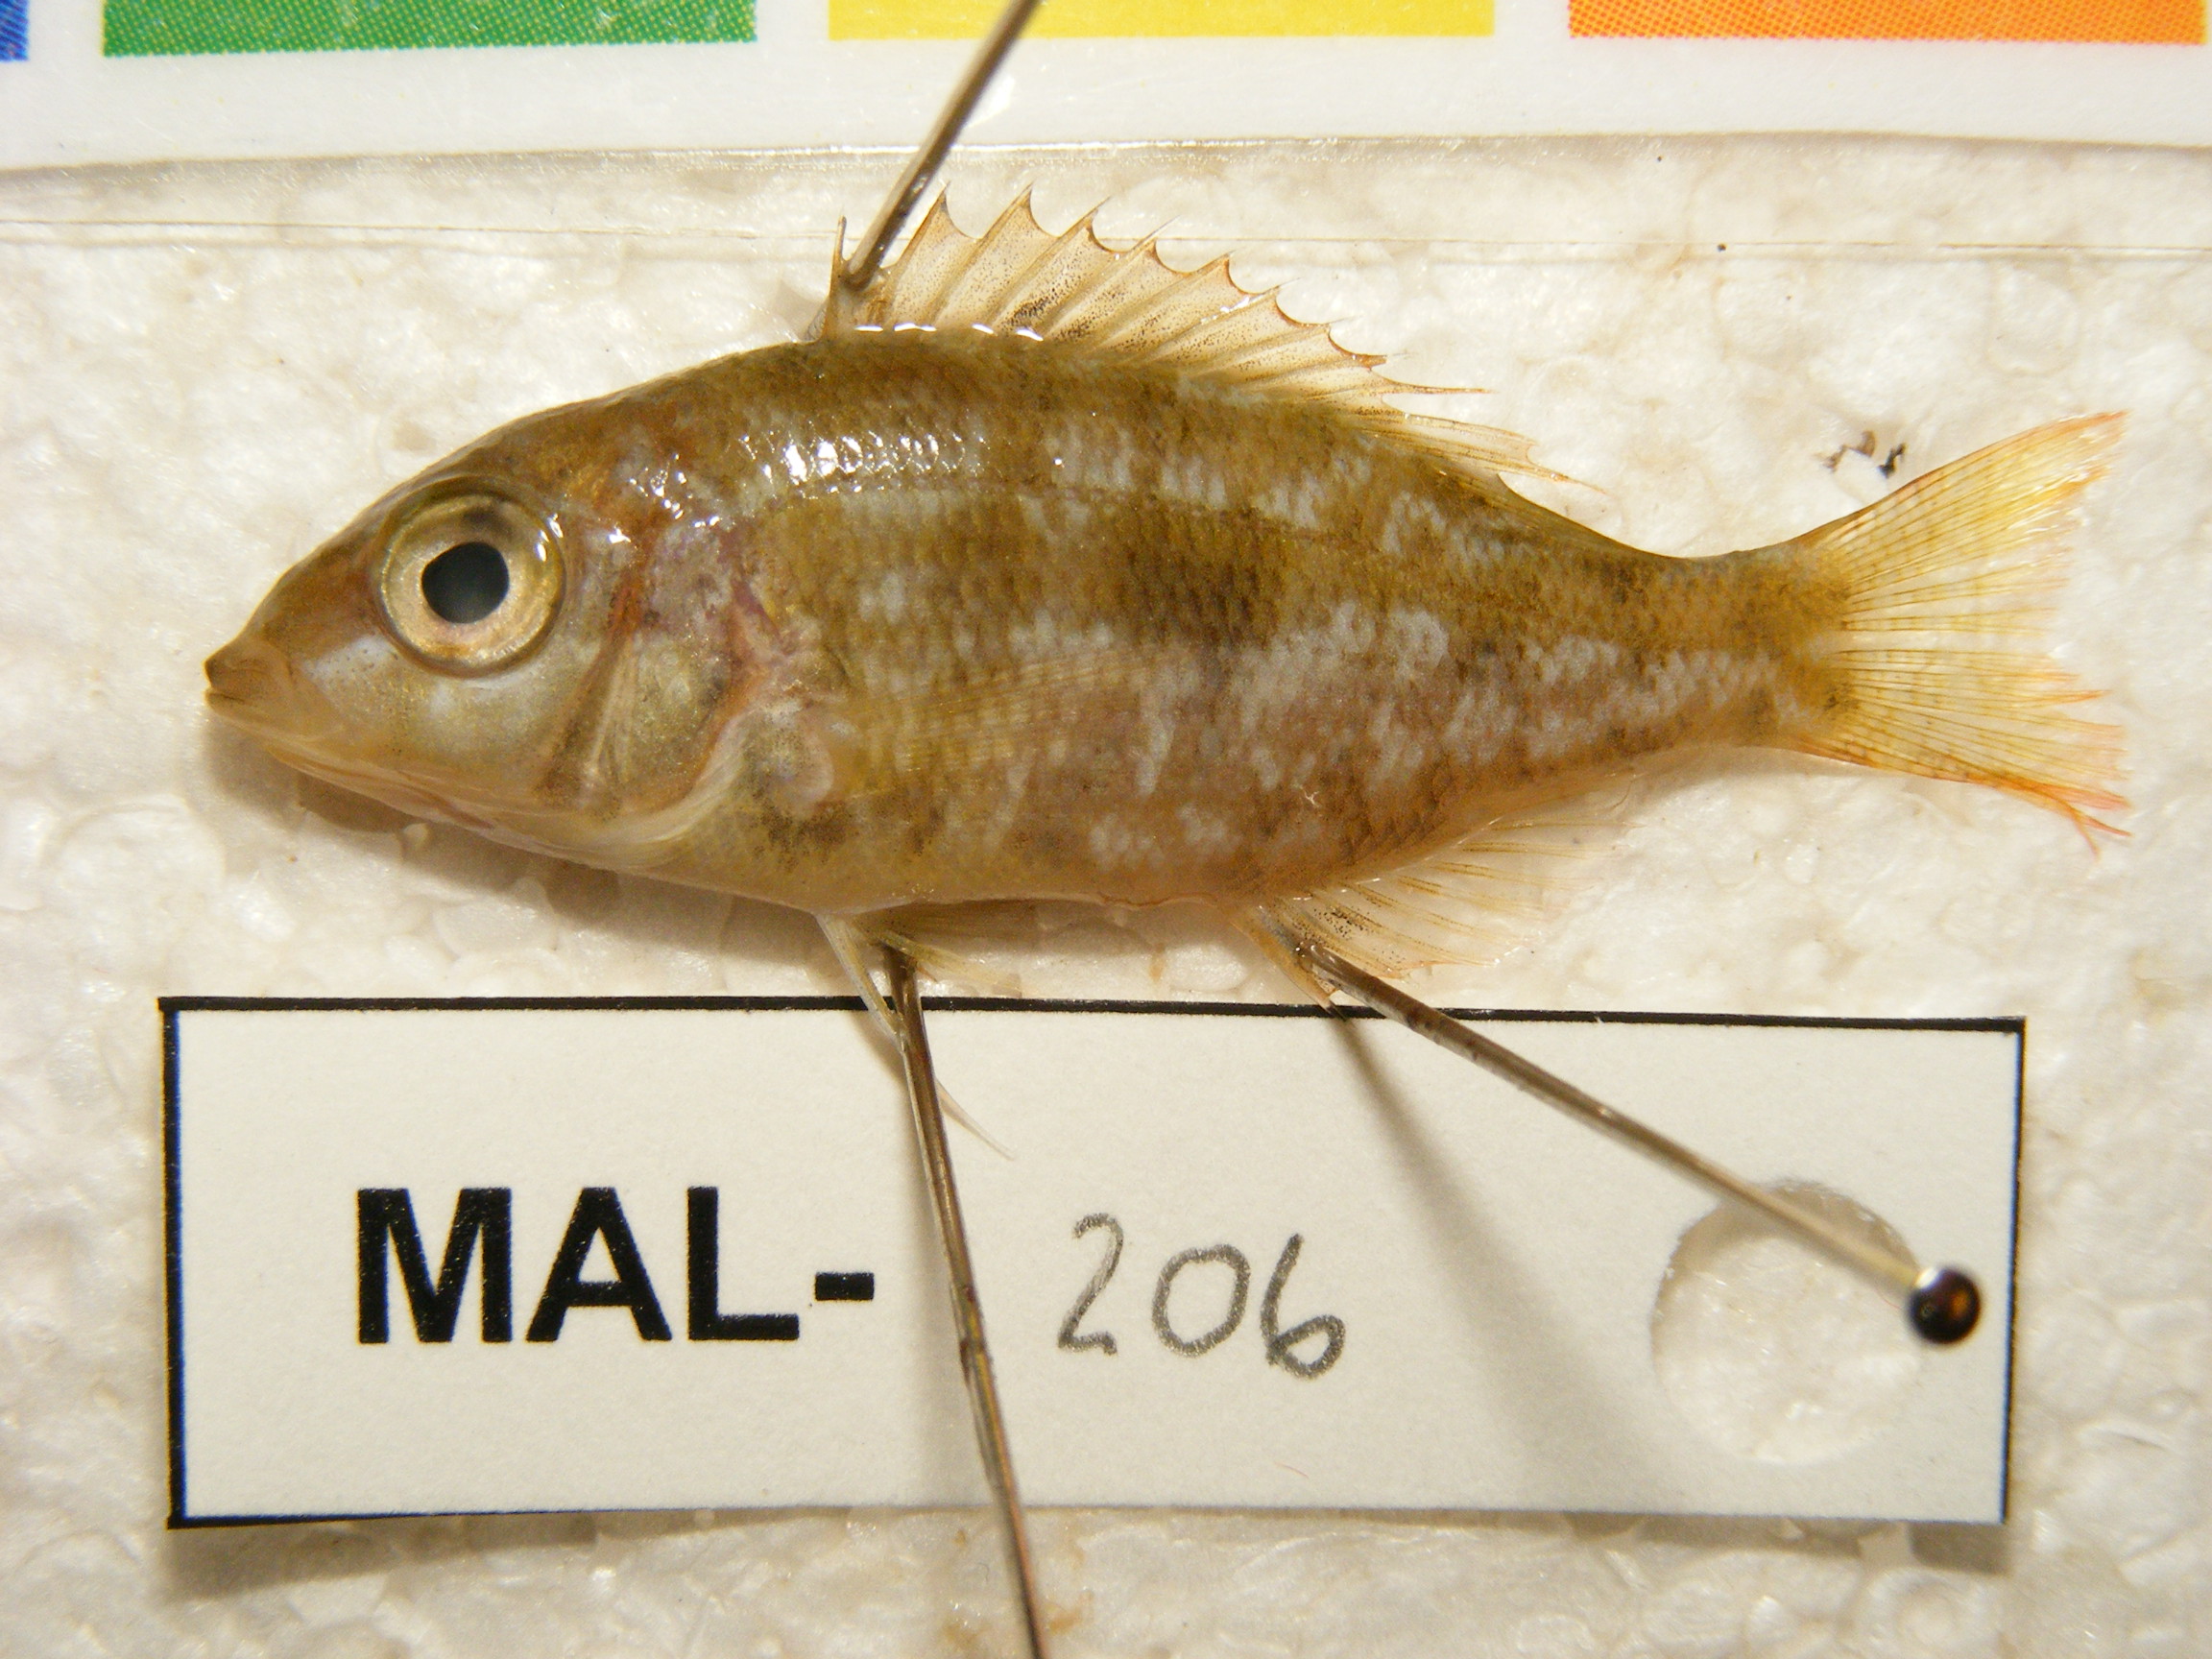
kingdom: Animalia
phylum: Chordata
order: Perciformes
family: Lethrinidae
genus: Lethrinus
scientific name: Lethrinus harak
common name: Blackspot emperor
